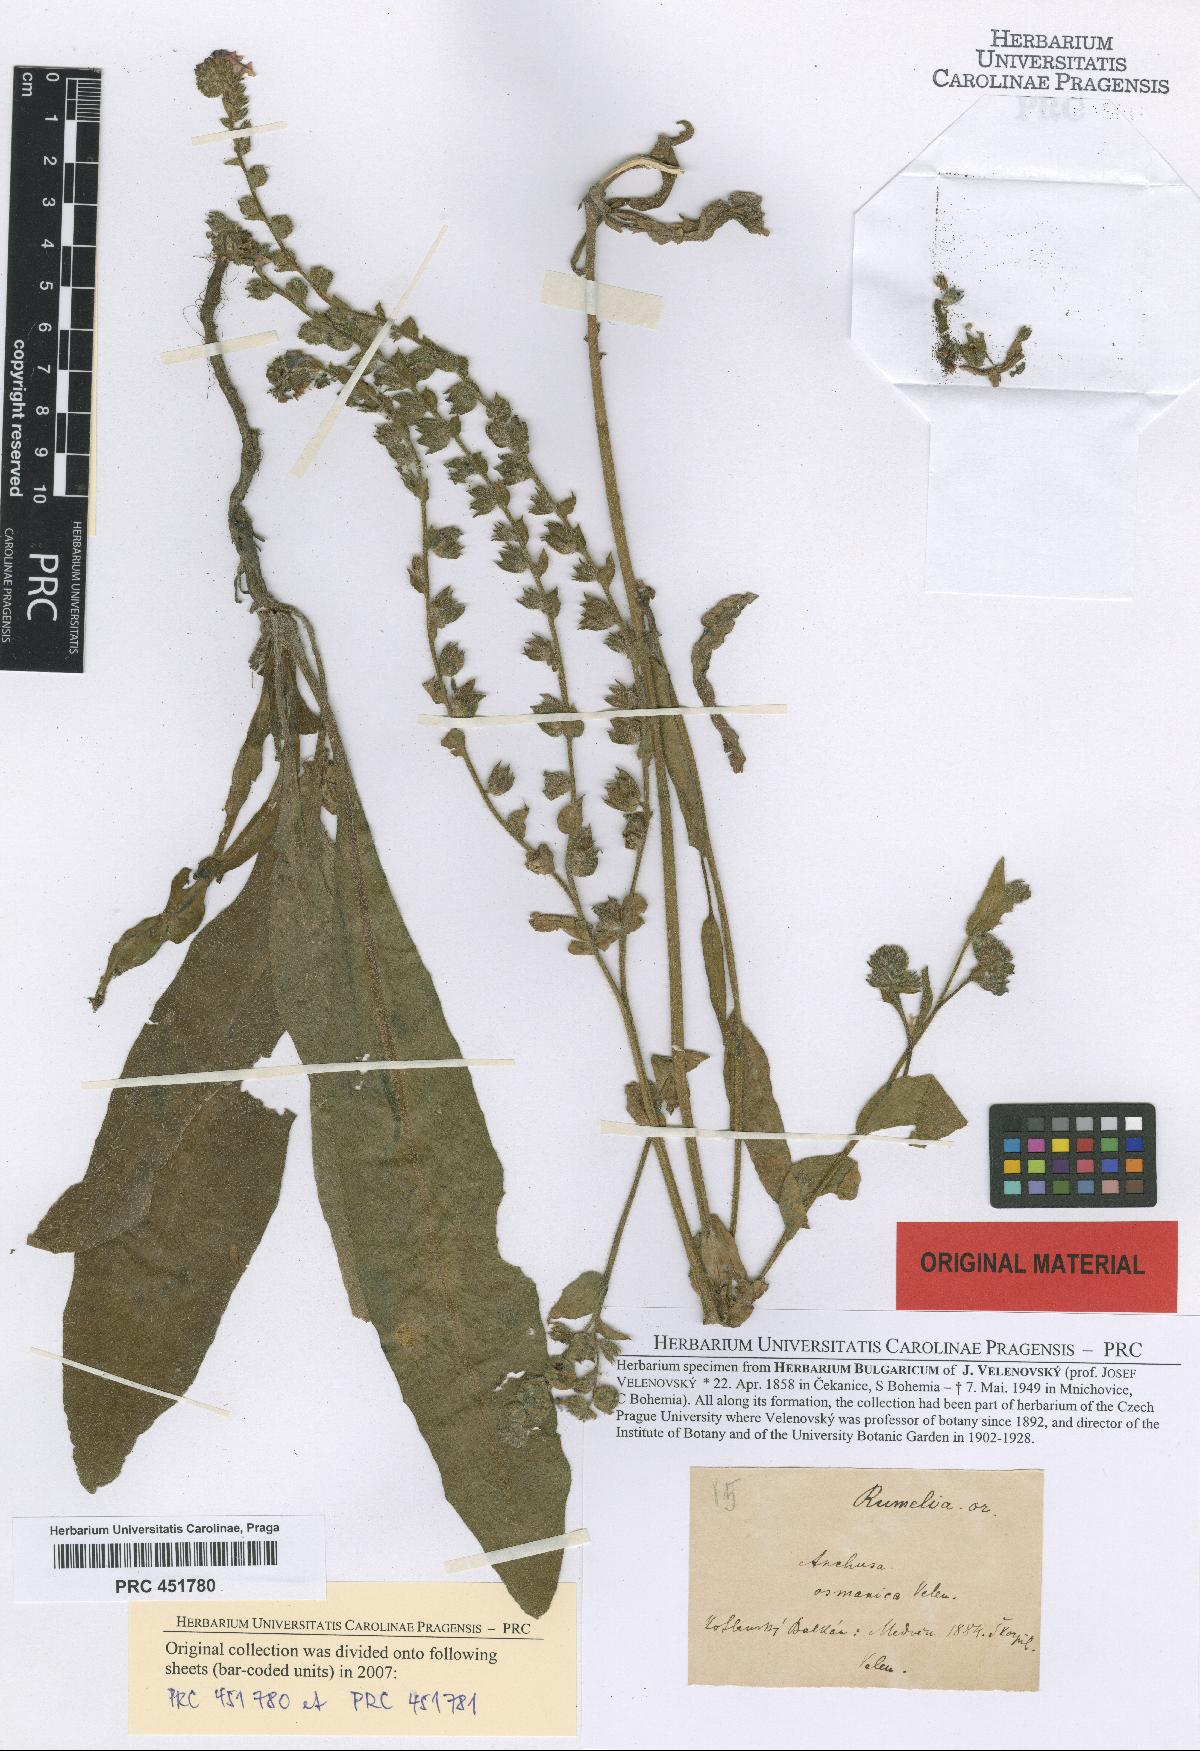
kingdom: Plantae
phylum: Tracheophyta
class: Magnoliopsida
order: Boraginales
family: Boraginaceae
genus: Anchusa
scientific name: Anchusa officinalis
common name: Alkanet
